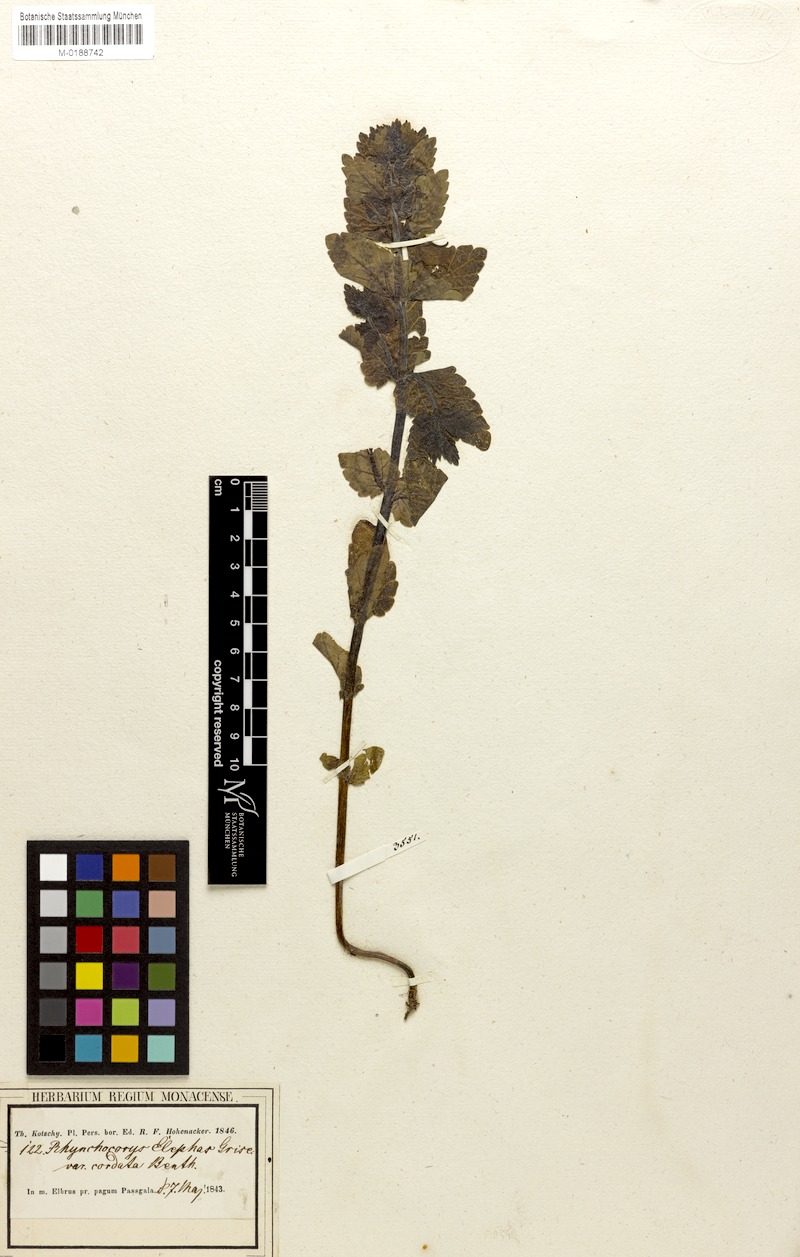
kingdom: Plantae
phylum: Tracheophyta
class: Magnoliopsida
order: Lamiales
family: Orobanchaceae
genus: Rhynchocorys
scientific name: Rhynchocorys orientalis
